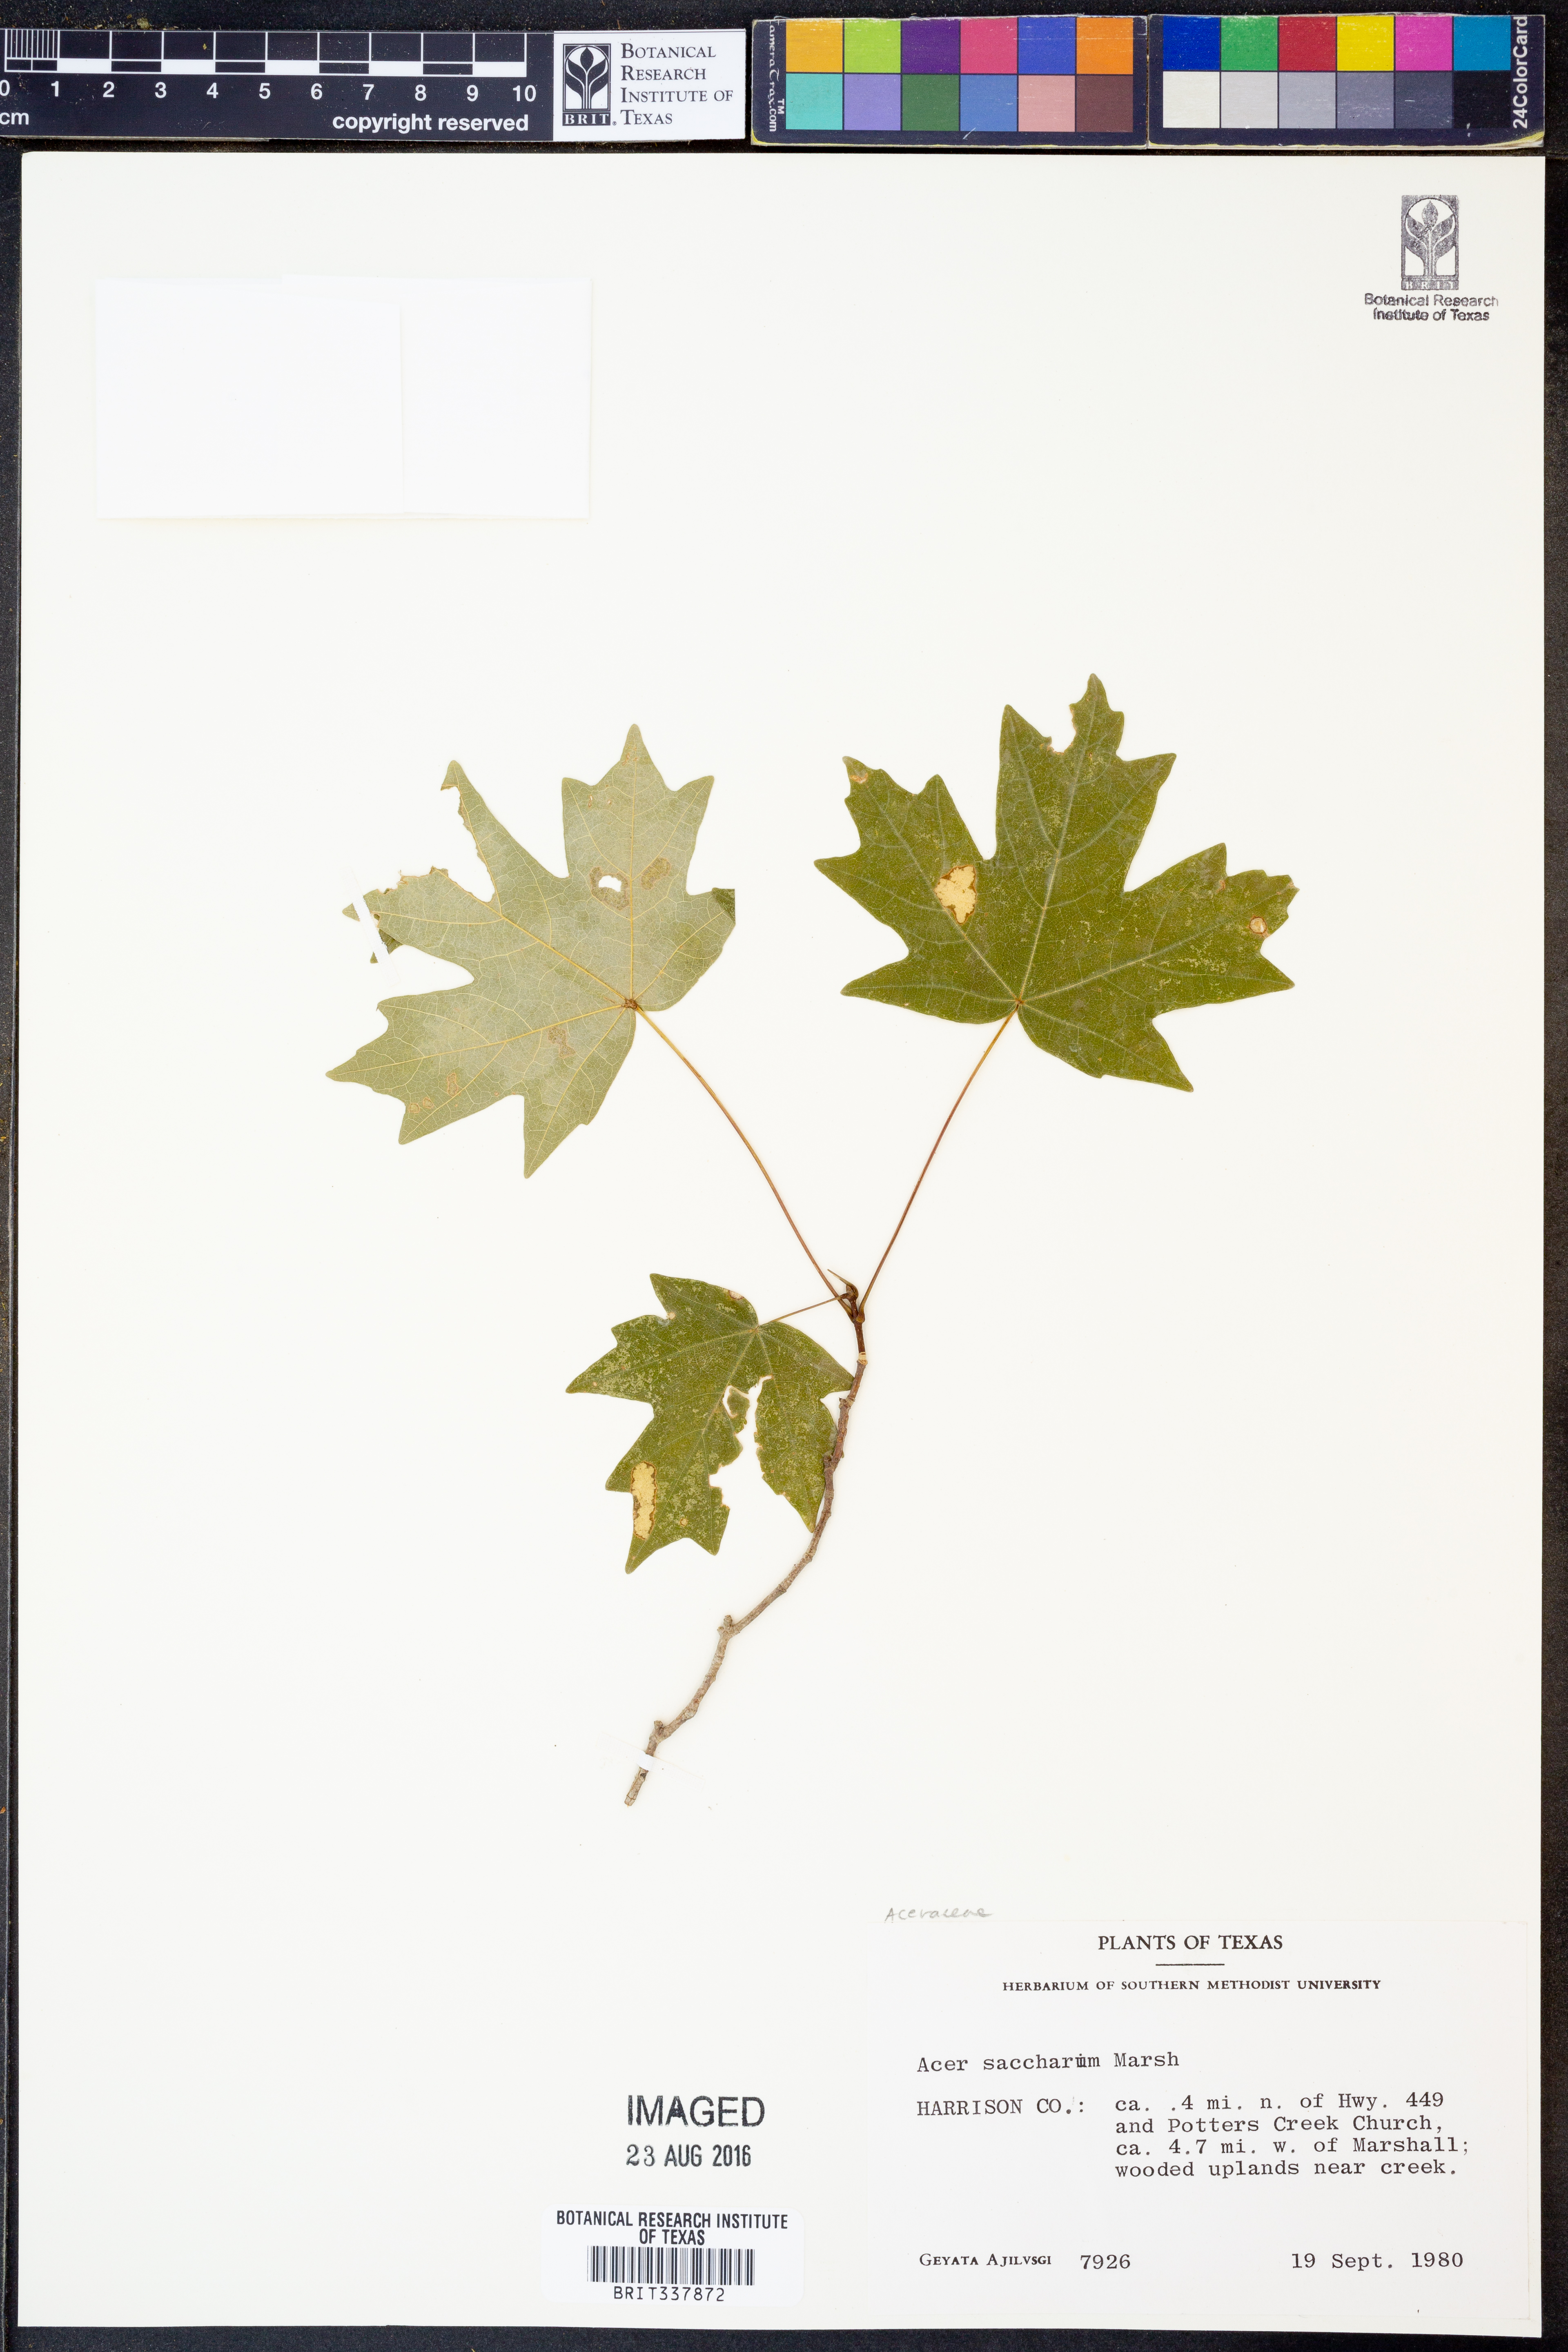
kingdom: Plantae
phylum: Tracheophyta
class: Magnoliopsida
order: Sapindales
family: Sapindaceae
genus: Acer
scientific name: Acer saccharum
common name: Sugar maple
